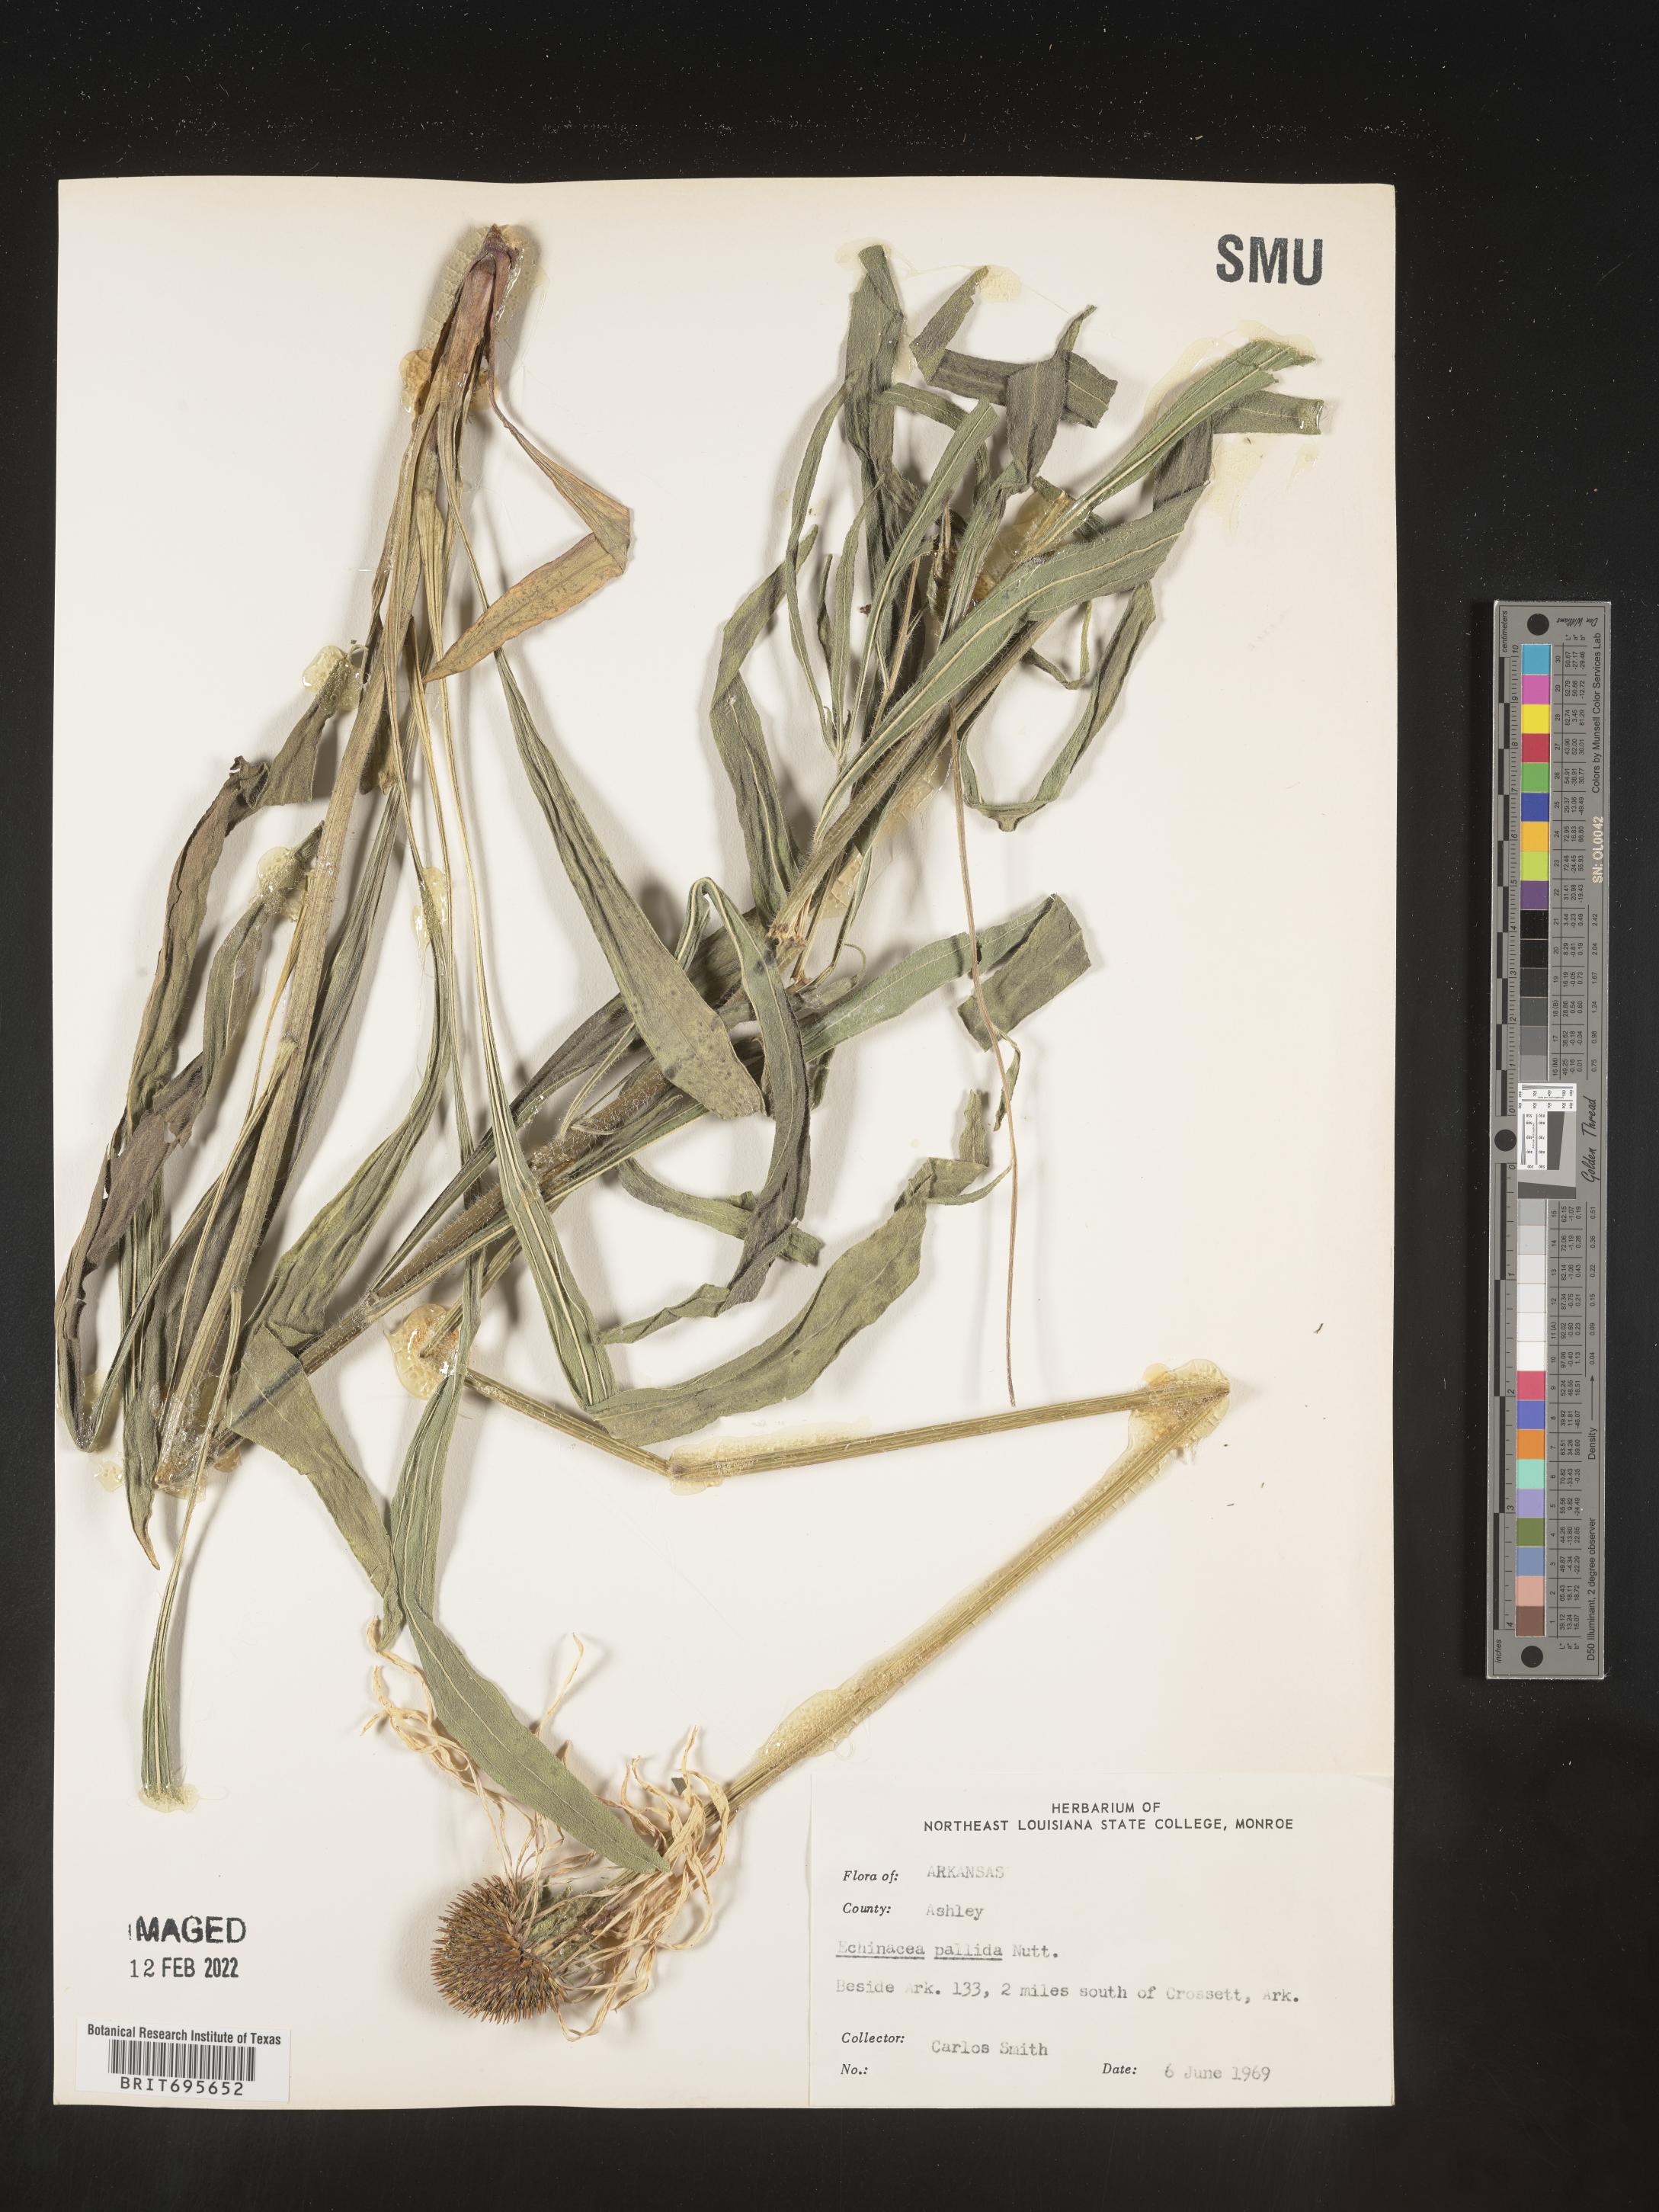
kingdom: Plantae
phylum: Tracheophyta
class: Magnoliopsida
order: Asterales
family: Asteraceae
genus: Echinacea
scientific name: Echinacea pallida
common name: Pale echinacea
